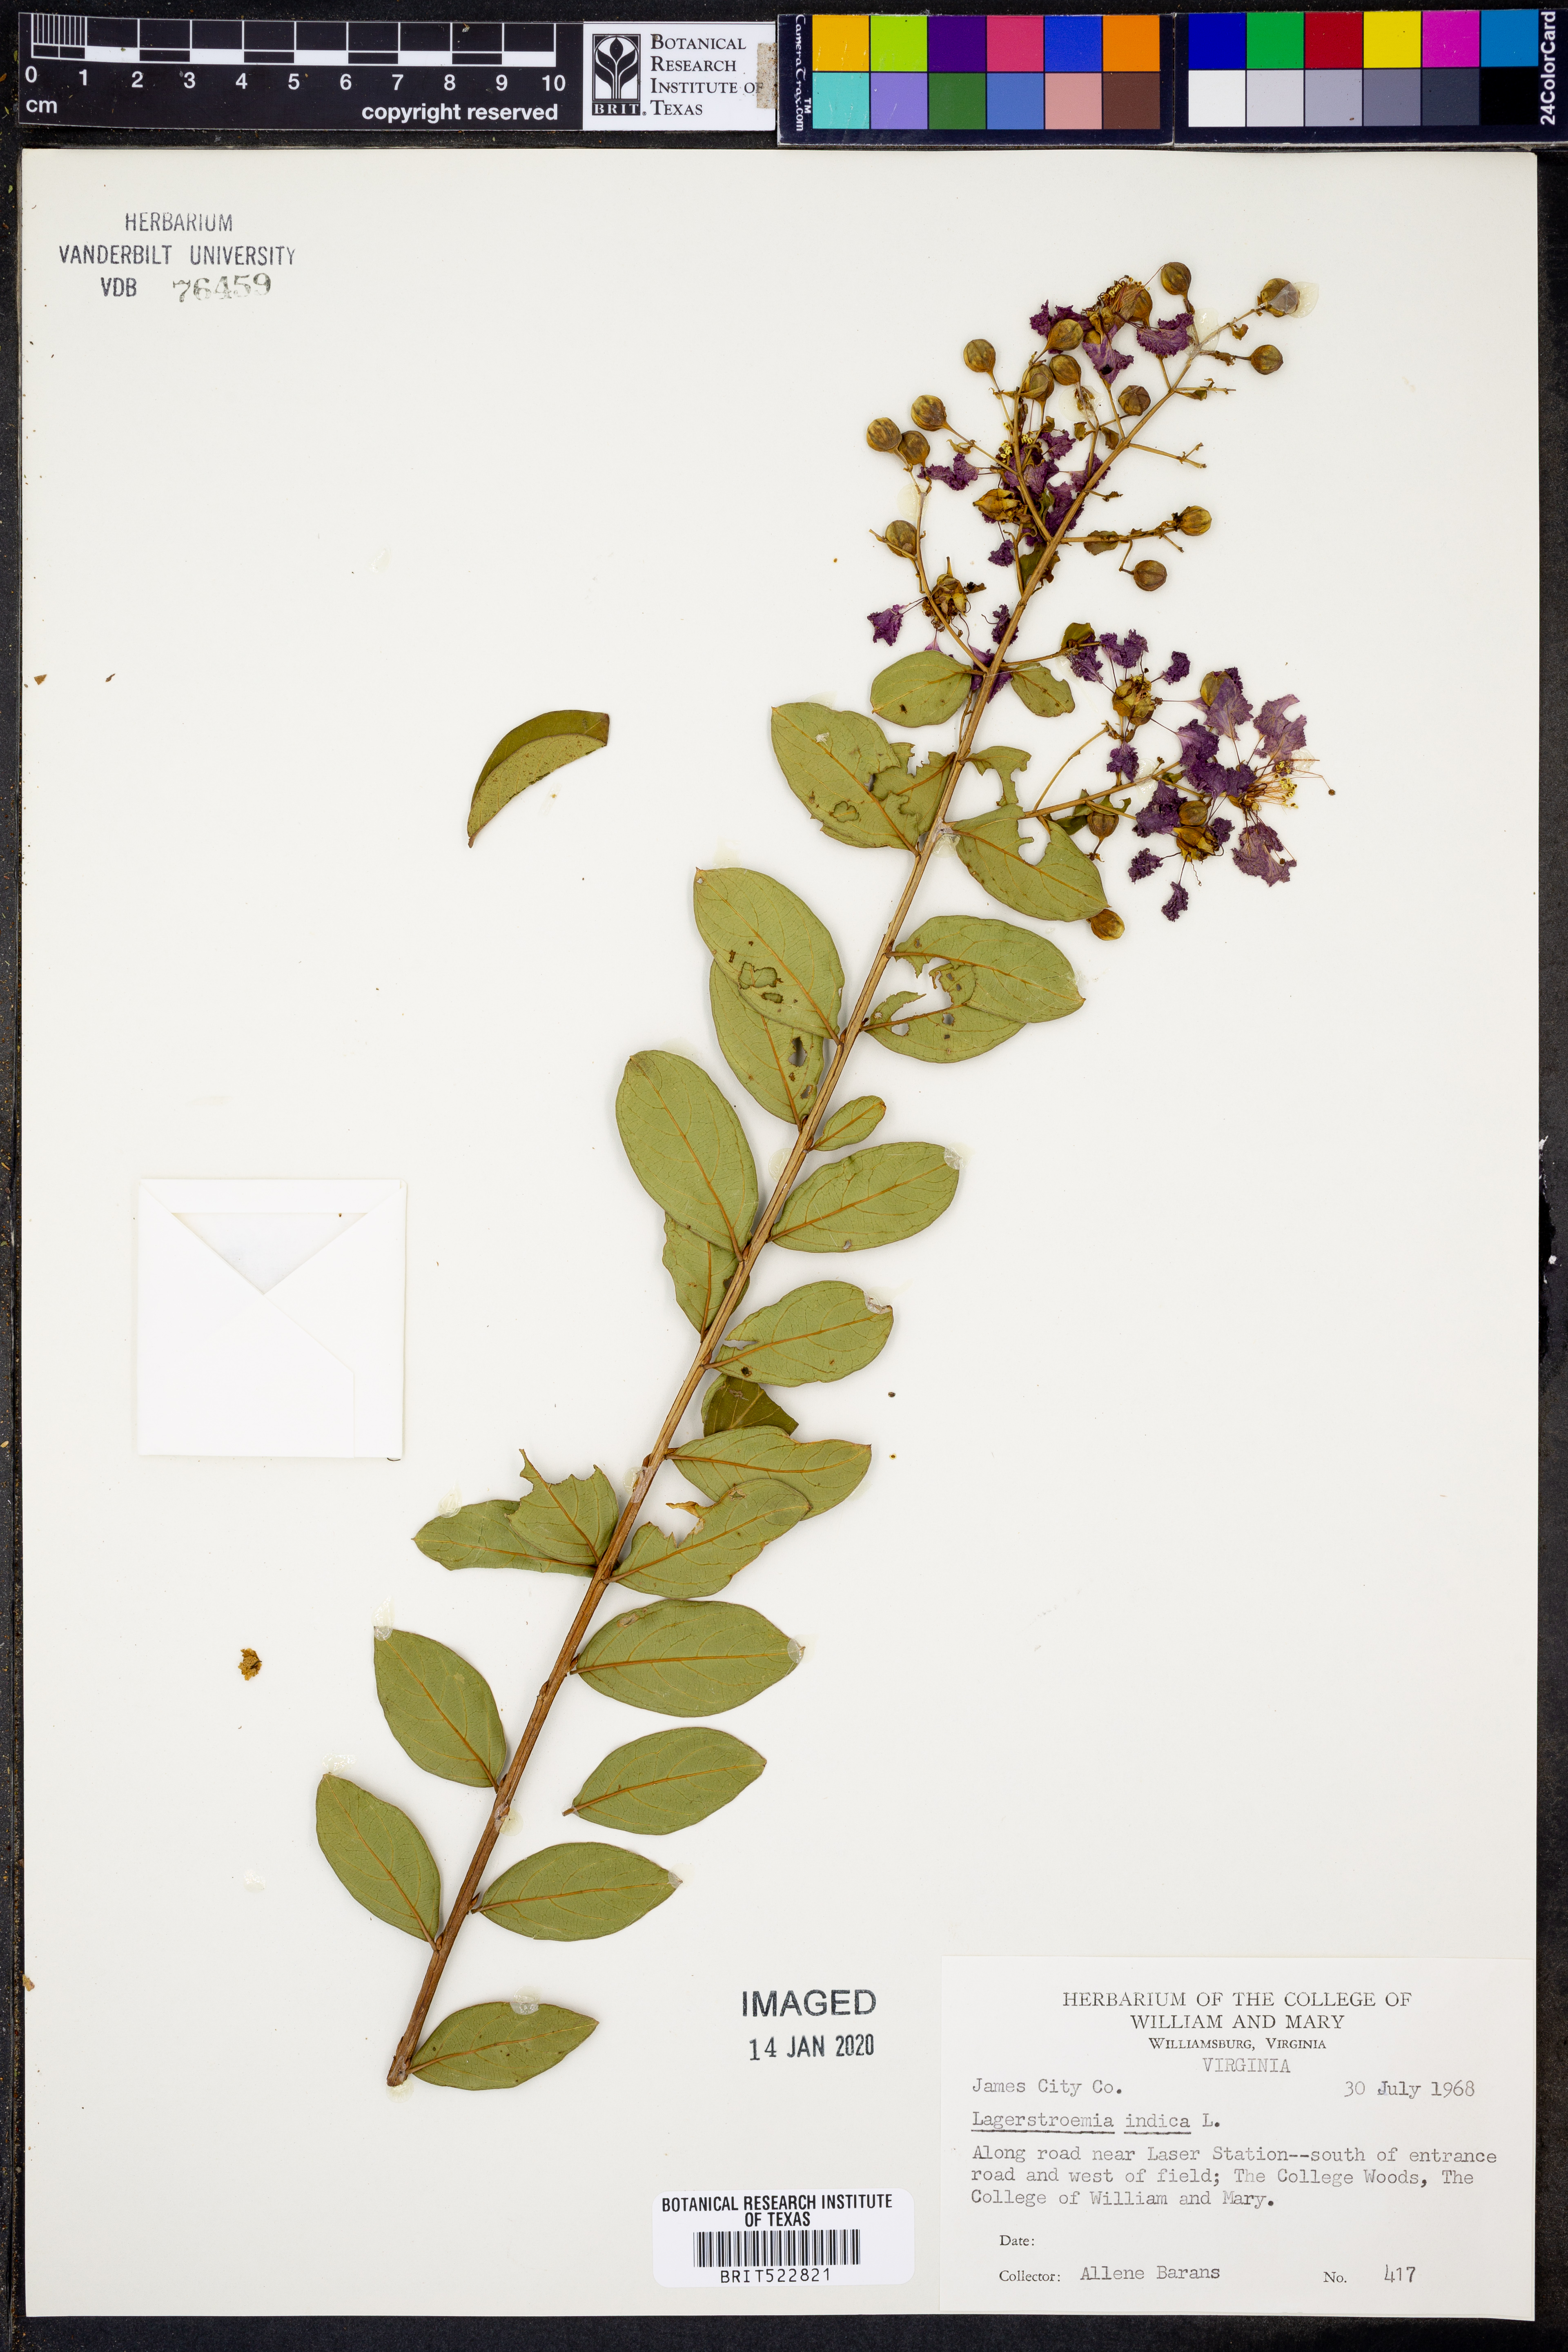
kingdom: Plantae
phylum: Tracheophyta
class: Magnoliopsida
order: Myrtales
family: Lythraceae
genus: Lagerstroemia
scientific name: Lagerstroemia indica
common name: Crape-myrtle
